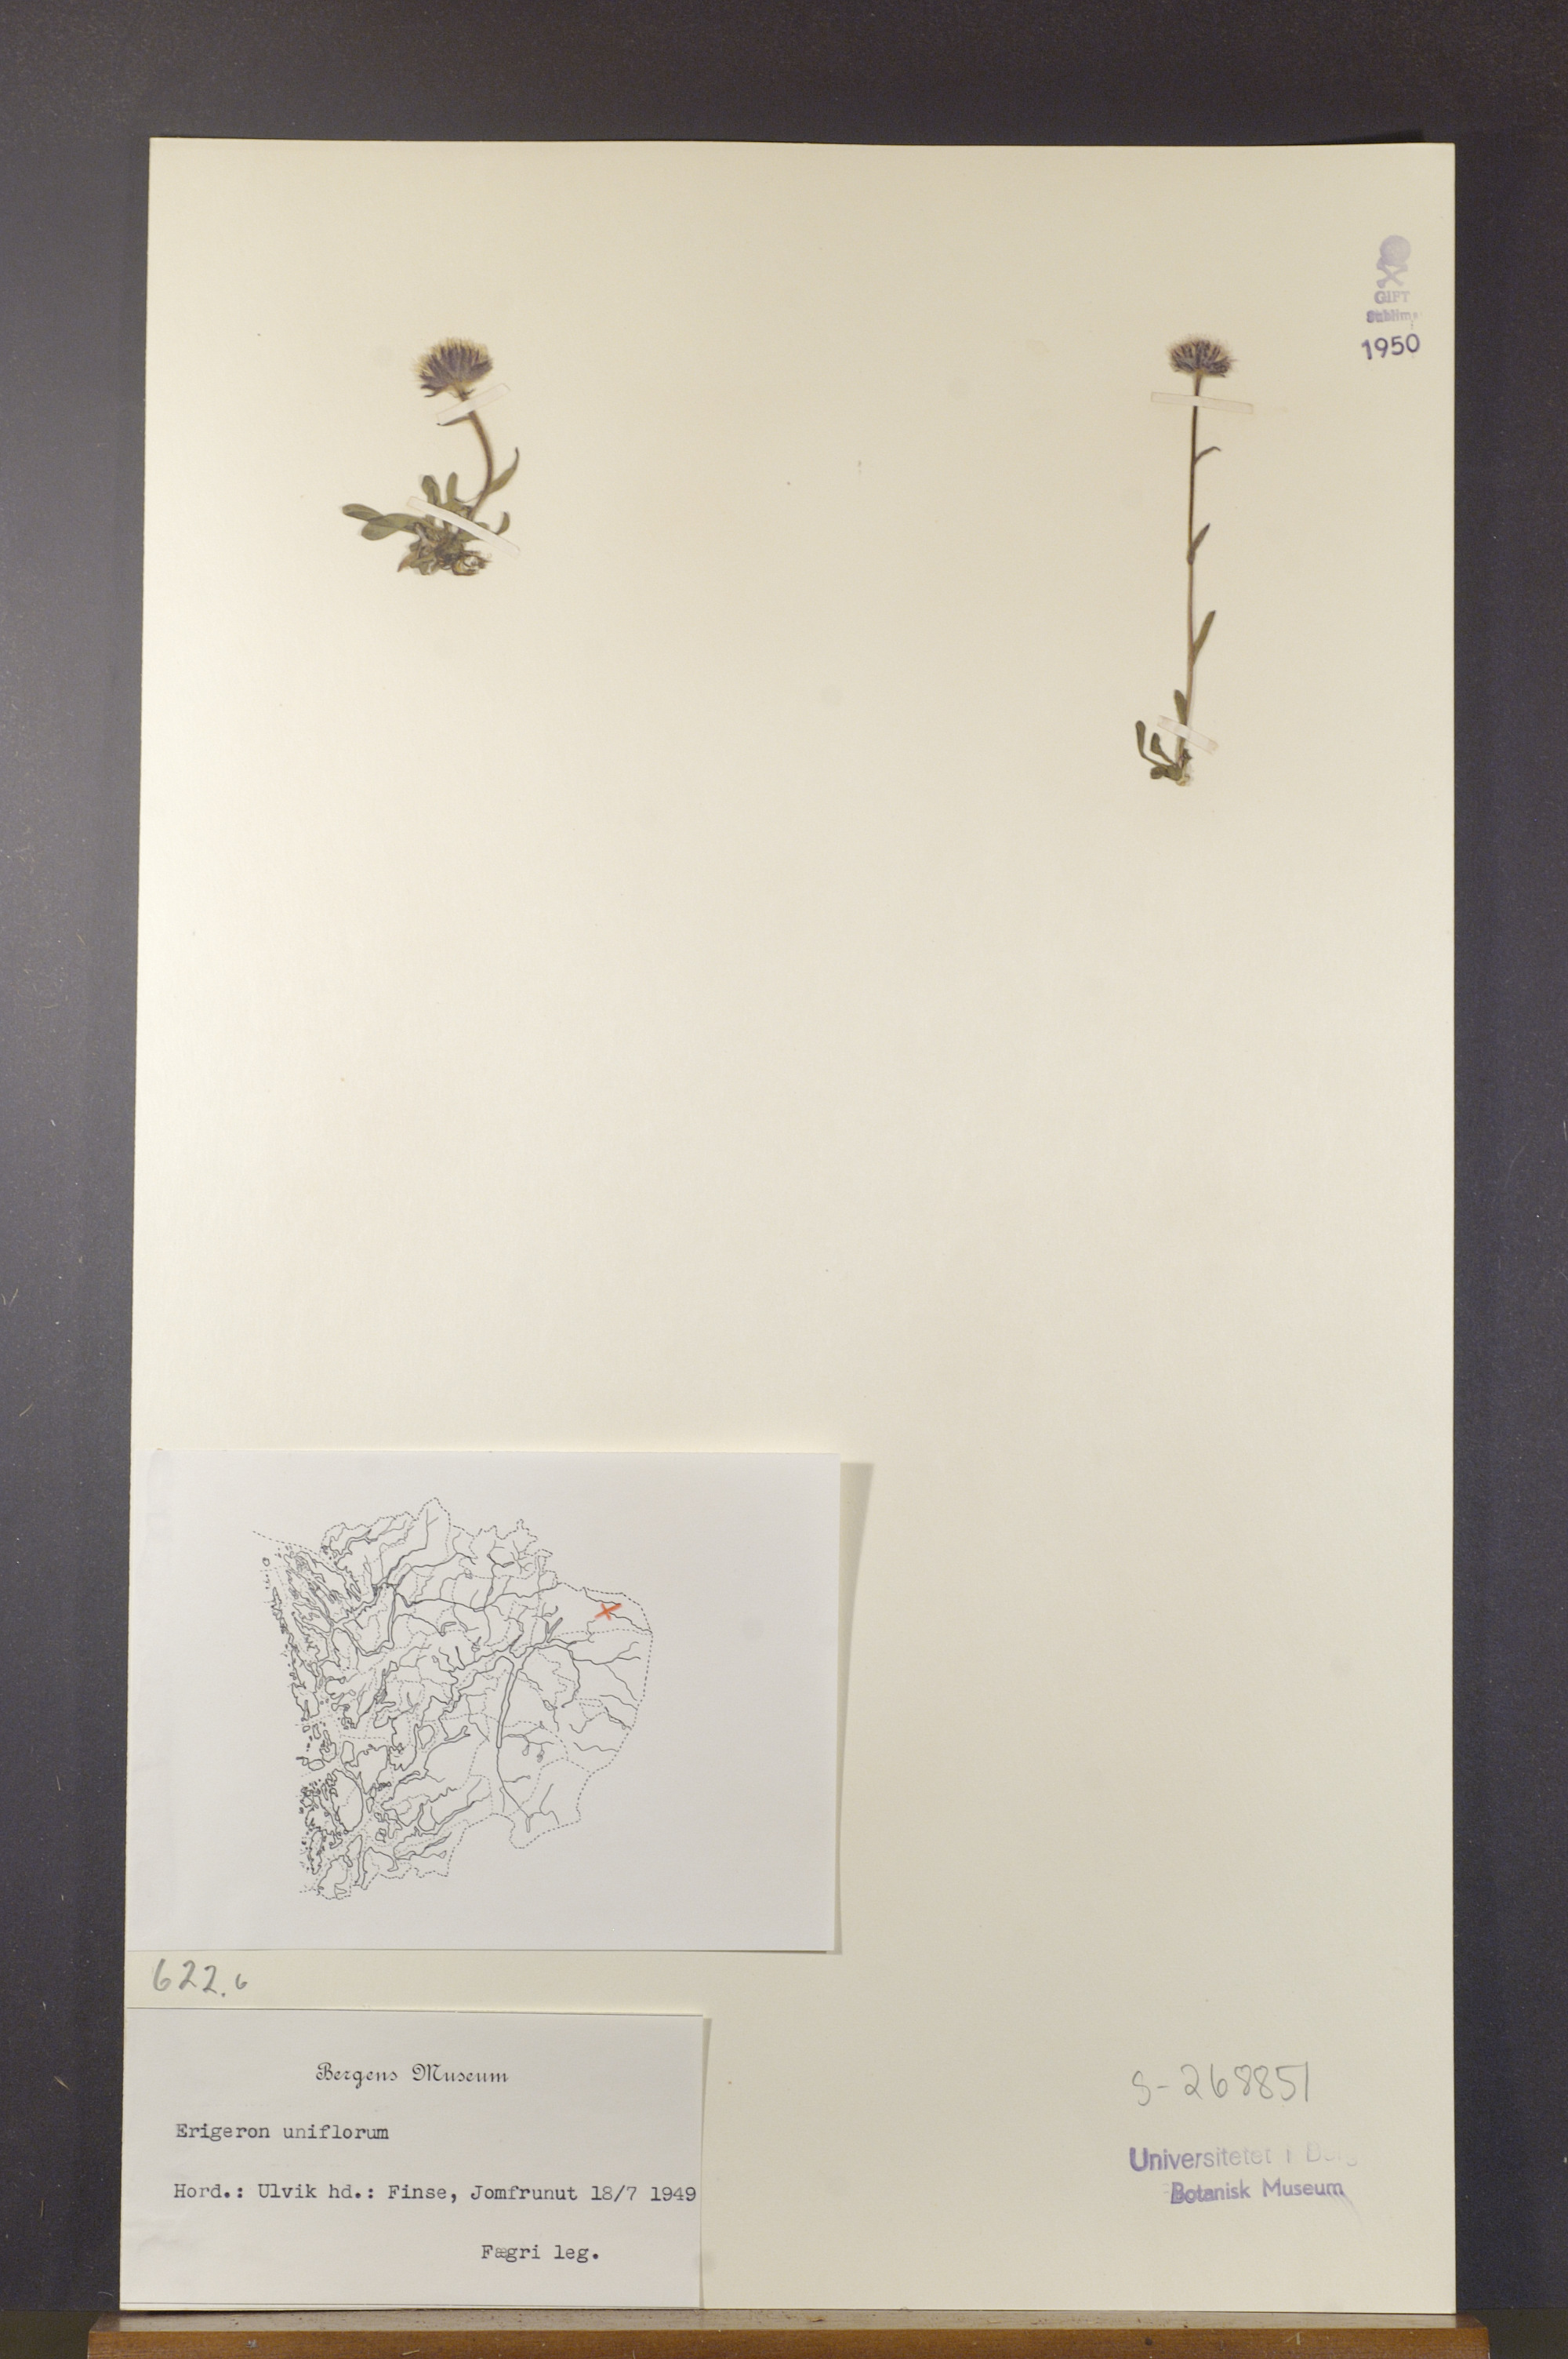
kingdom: Plantae
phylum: Tracheophyta
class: Magnoliopsida
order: Asterales
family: Asteraceae
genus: Erigeron
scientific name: Erigeron uniflorus
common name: Northern daisy
